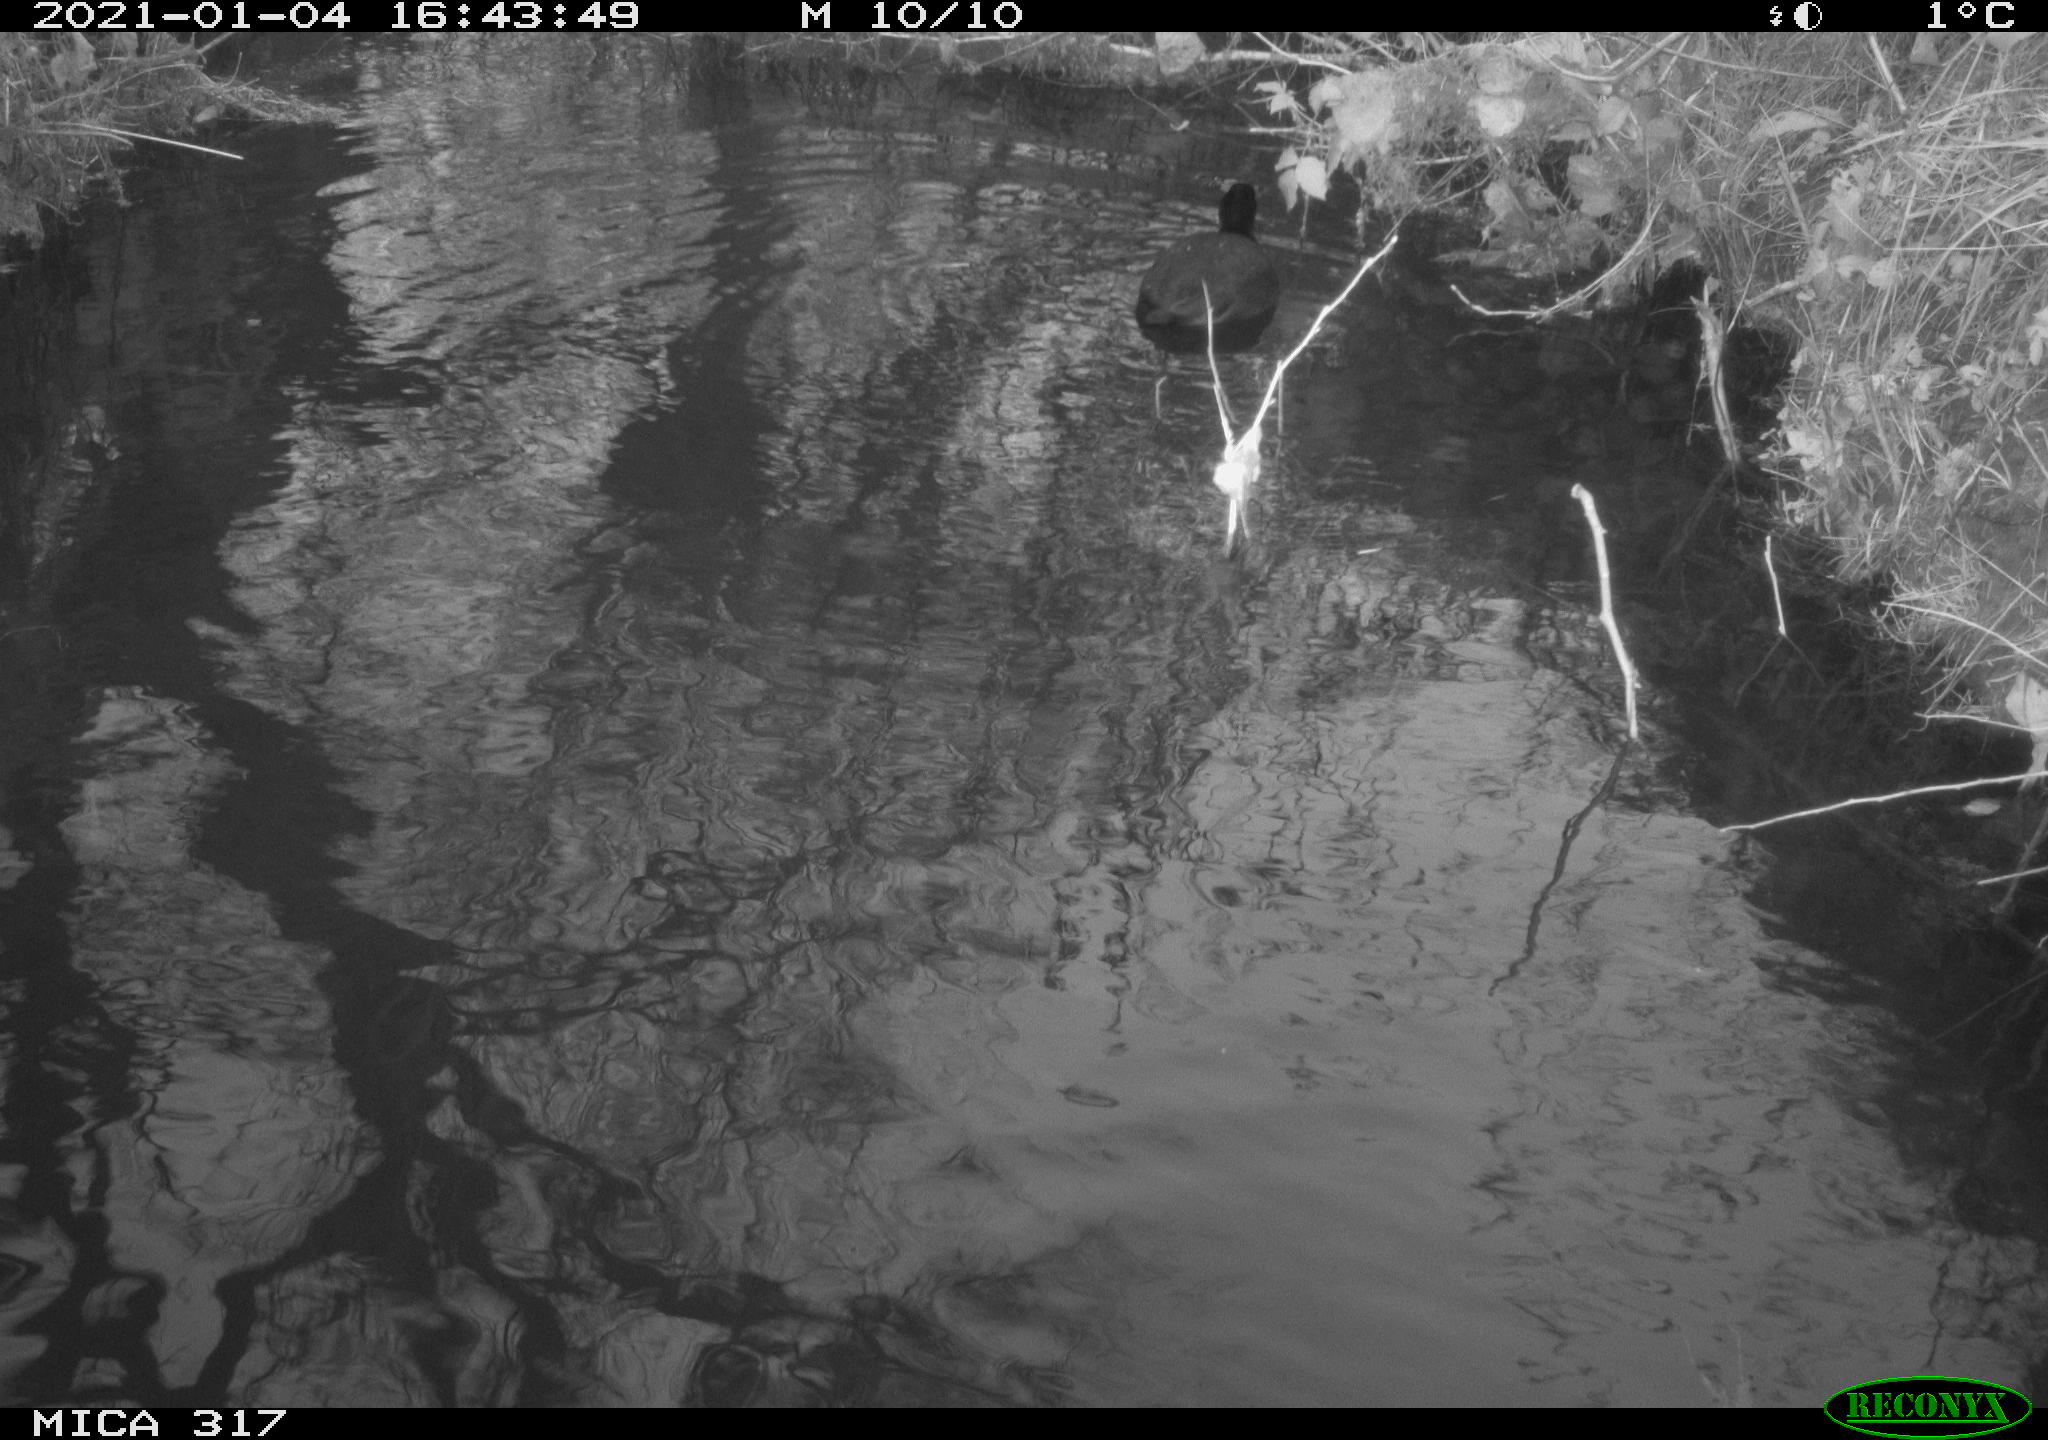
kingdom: Animalia
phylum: Chordata
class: Aves
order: Gruiformes
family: Rallidae
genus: Fulica
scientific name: Fulica atra
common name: Eurasian coot
